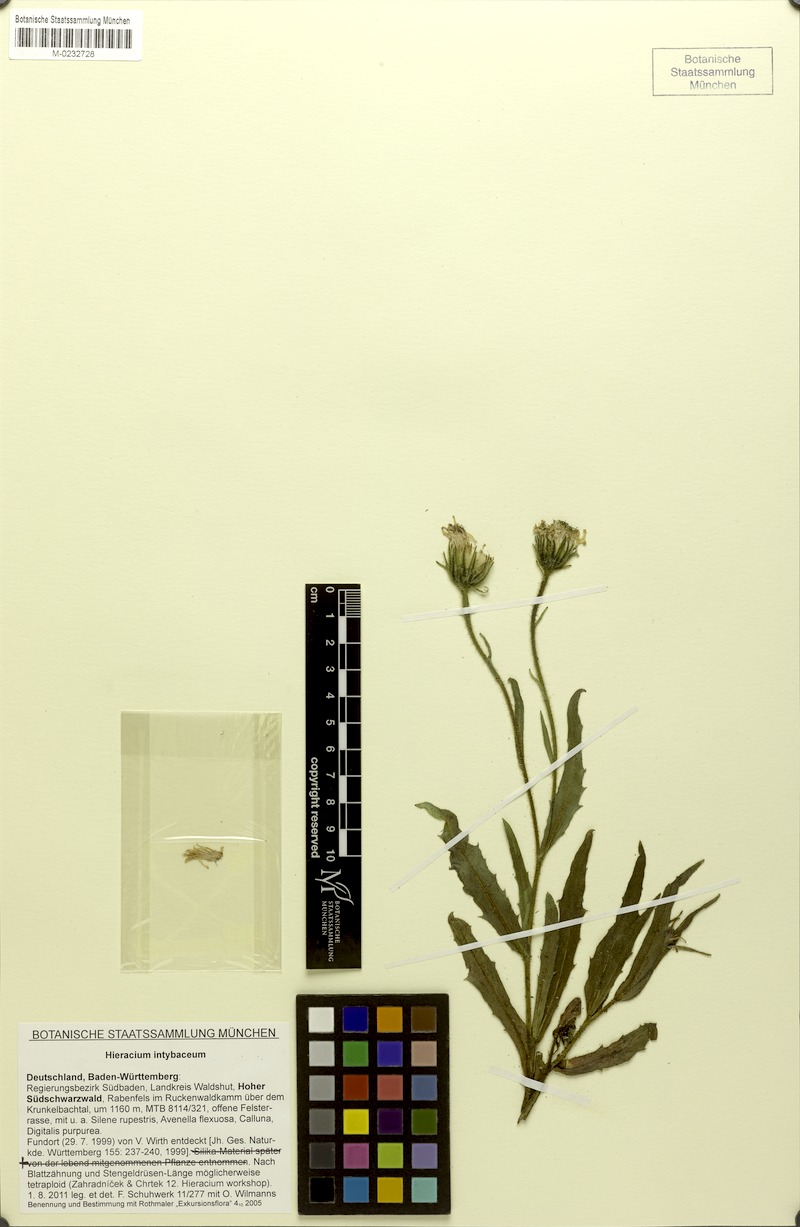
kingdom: Plantae
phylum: Tracheophyta
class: Magnoliopsida
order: Asterales
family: Asteraceae
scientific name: Asteraceae
